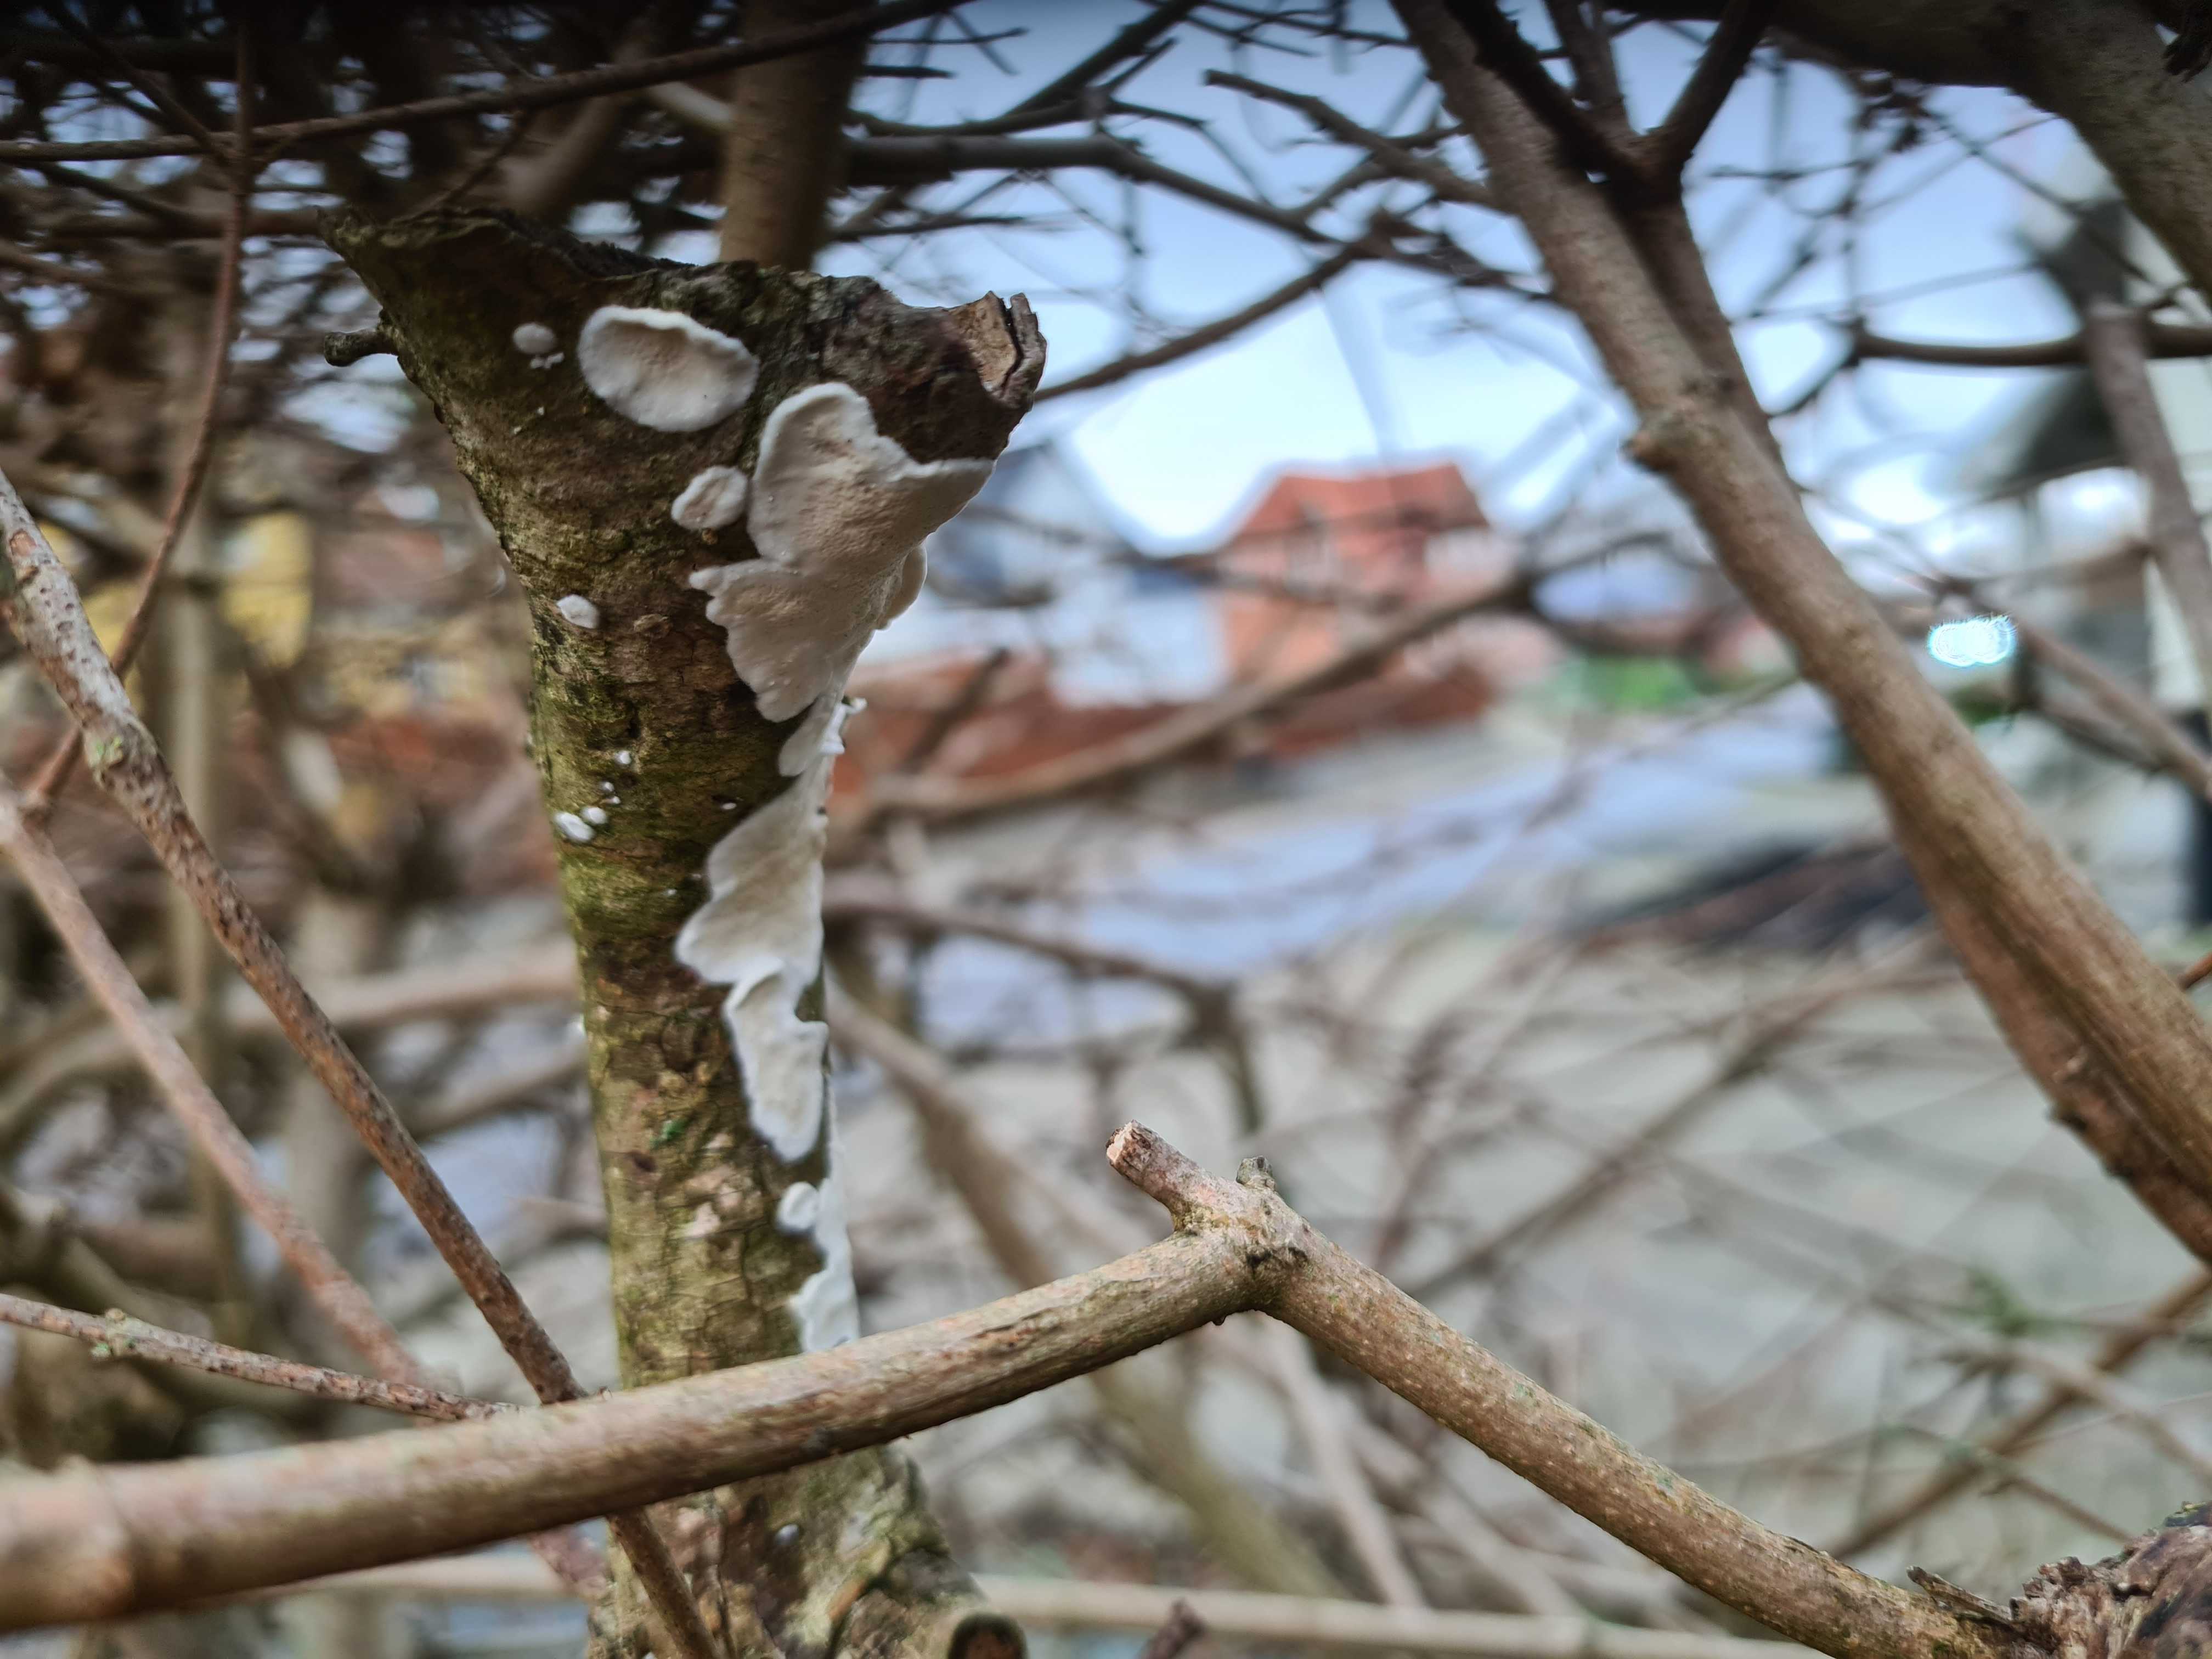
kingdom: Fungi
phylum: Basidiomycota
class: Agaricomycetes
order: Polyporales
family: Irpicaceae
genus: Byssomerulius
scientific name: Byssomerulius corium
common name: læder-åresvamp
